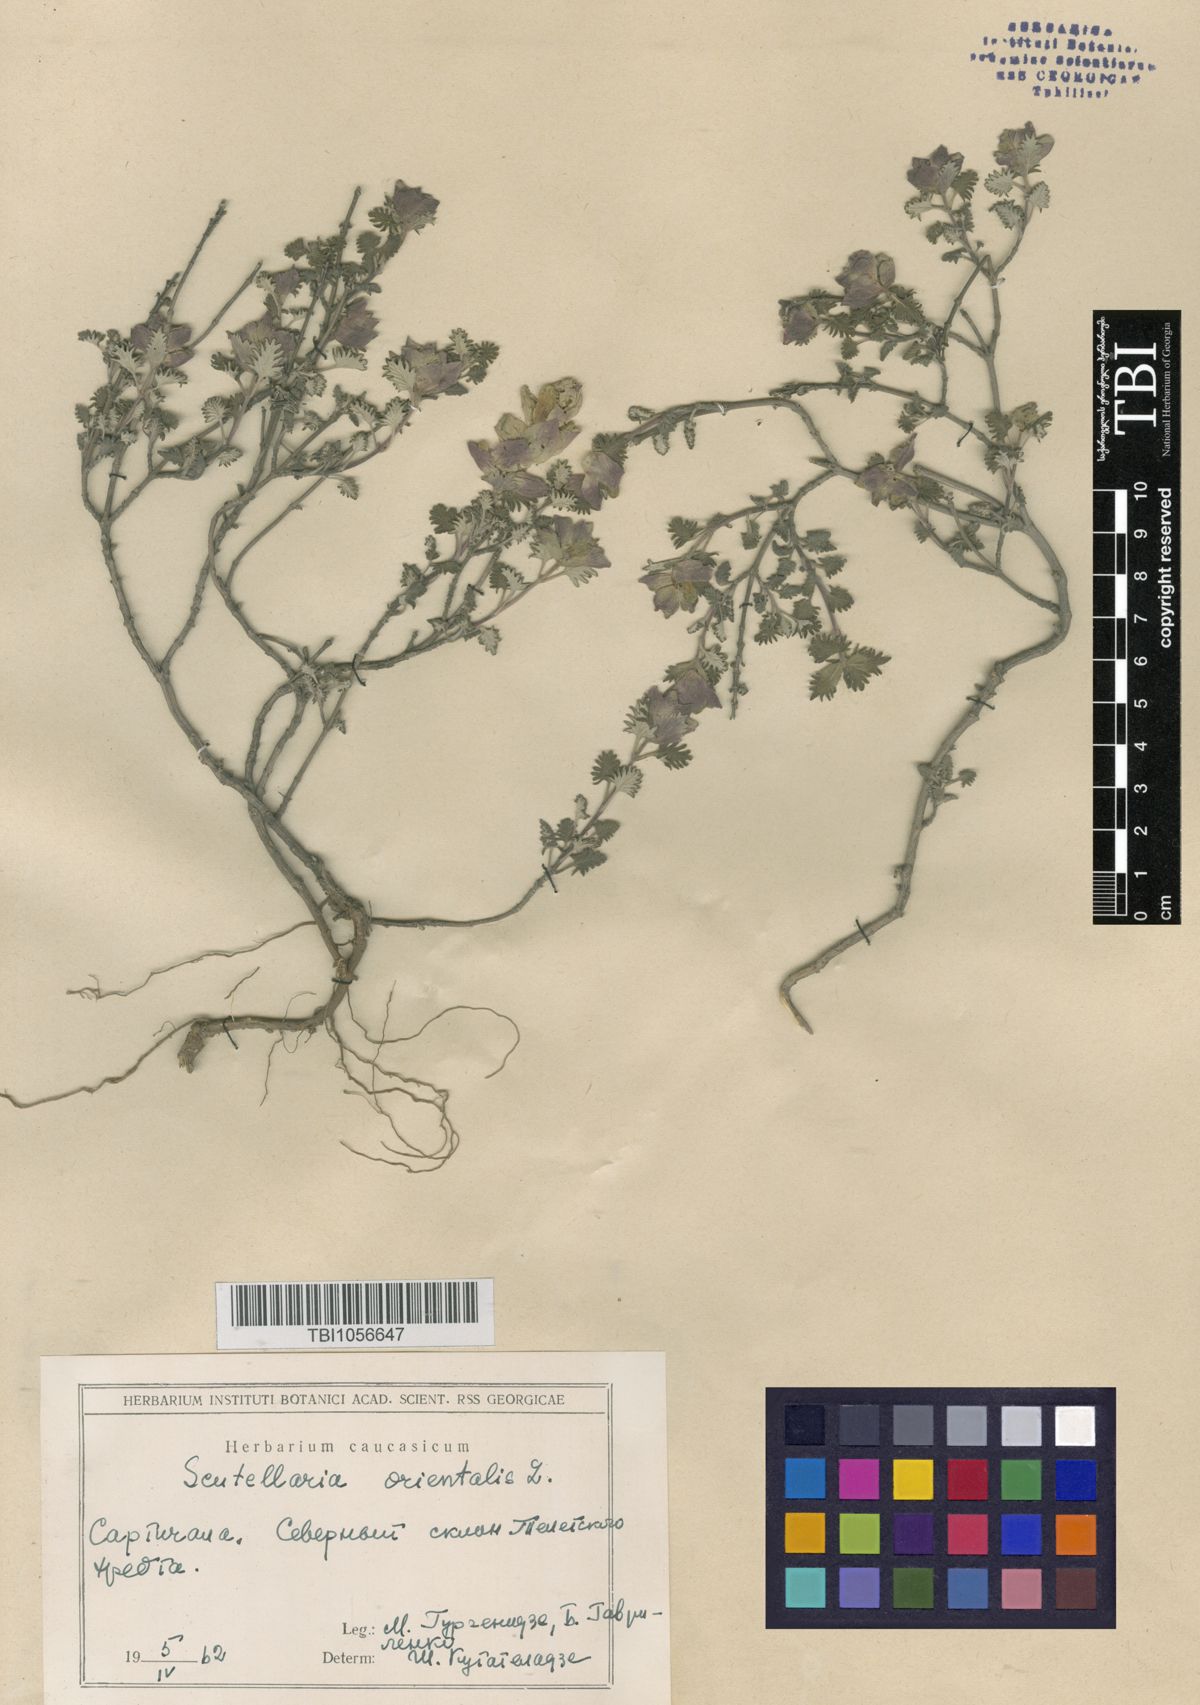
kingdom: Plantae
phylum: Tracheophyta
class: Magnoliopsida
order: Lamiales
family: Lamiaceae
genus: Scutellaria
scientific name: Scutellaria orientalis
